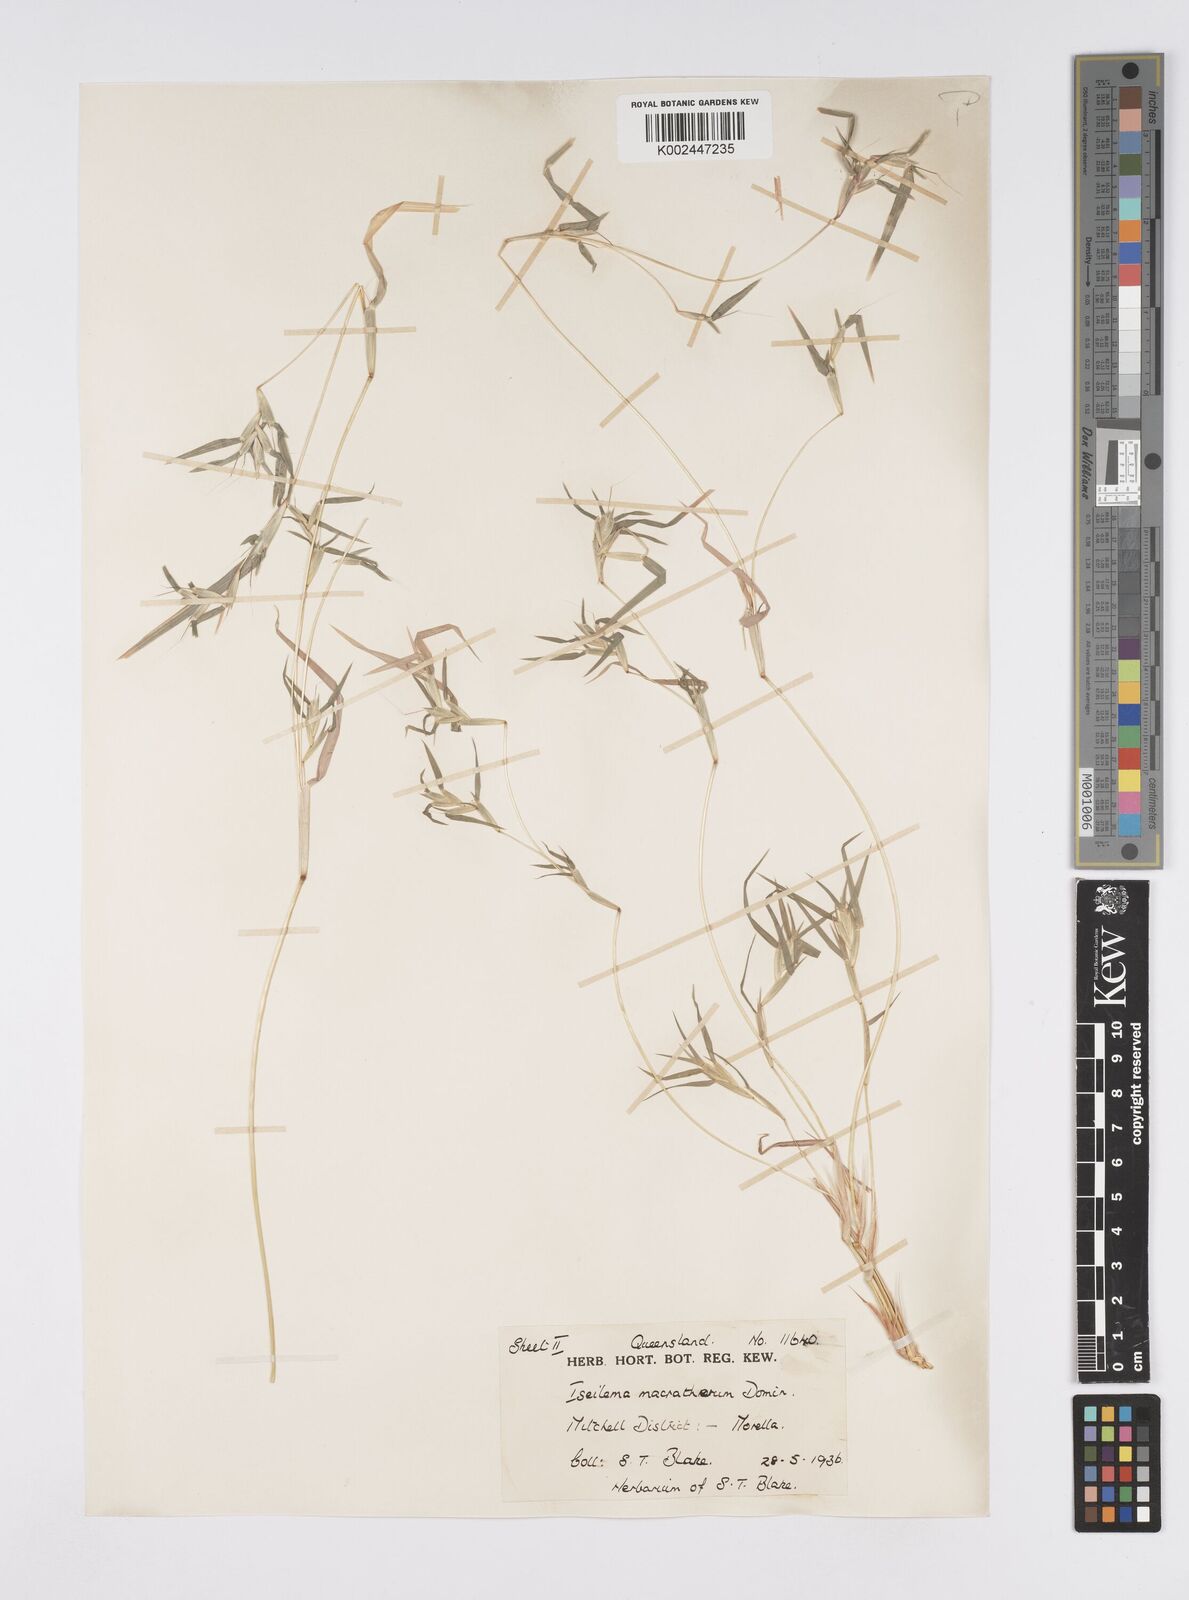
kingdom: Plantae
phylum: Tracheophyta
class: Liliopsida
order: Poales
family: Poaceae
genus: Iseilema
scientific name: Iseilema macratherum
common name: Bull flinders grass
